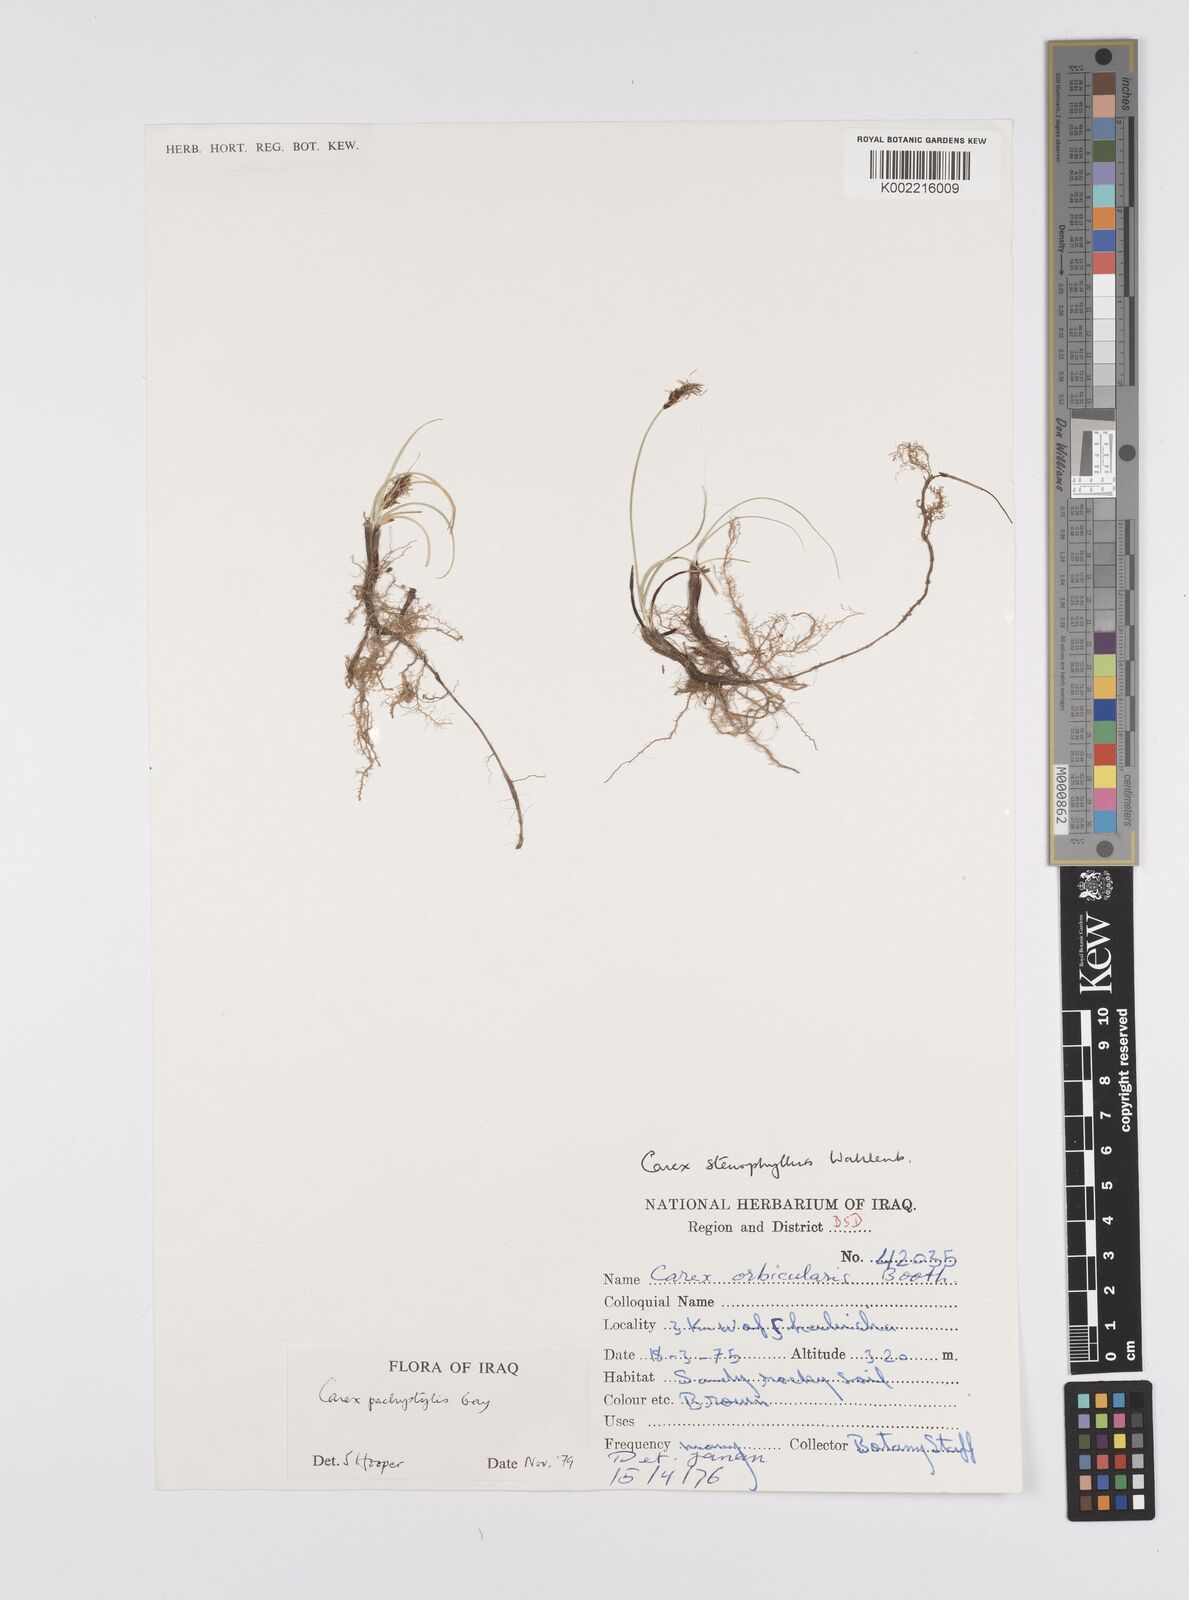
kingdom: Plantae
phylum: Tracheophyta
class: Liliopsida
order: Poales
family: Cyperaceae
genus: Carex
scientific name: Carex pachystylis
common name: Thick-stem sedge
